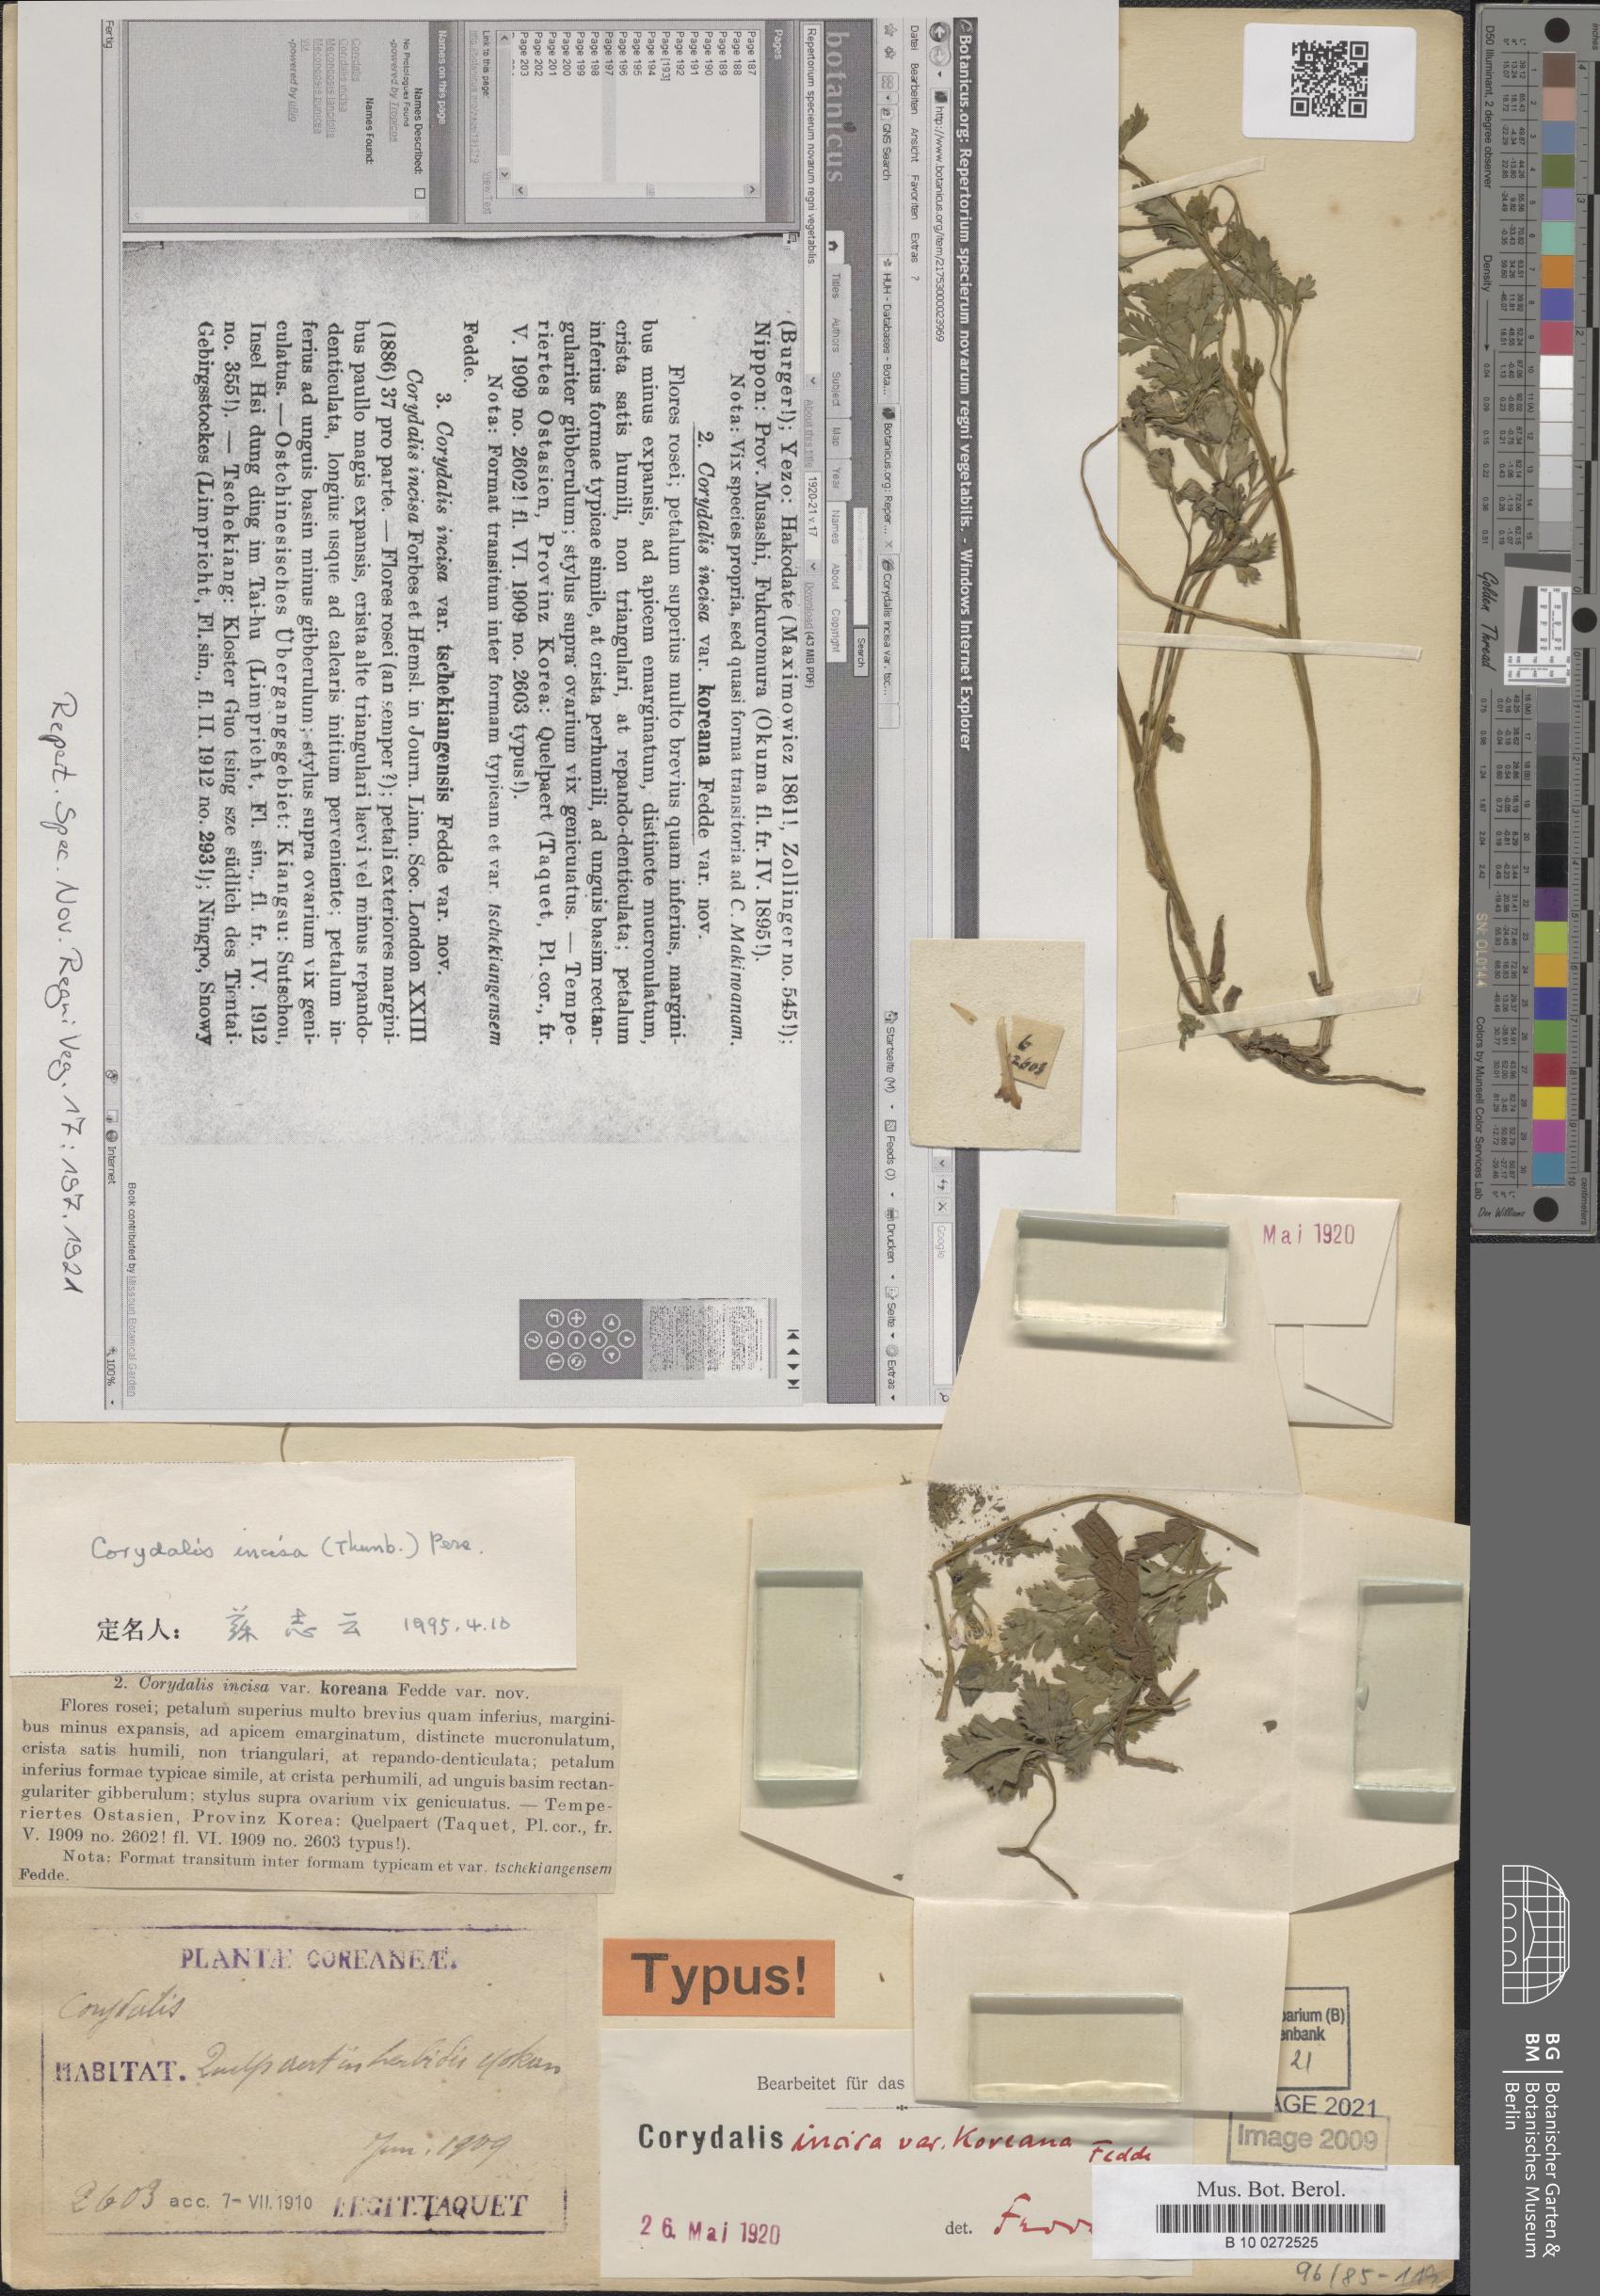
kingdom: Plantae
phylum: Tracheophyta
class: Magnoliopsida
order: Ranunculales
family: Papaveraceae
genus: Corydalis
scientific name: Corydalis incisa
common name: Incised fumewort
